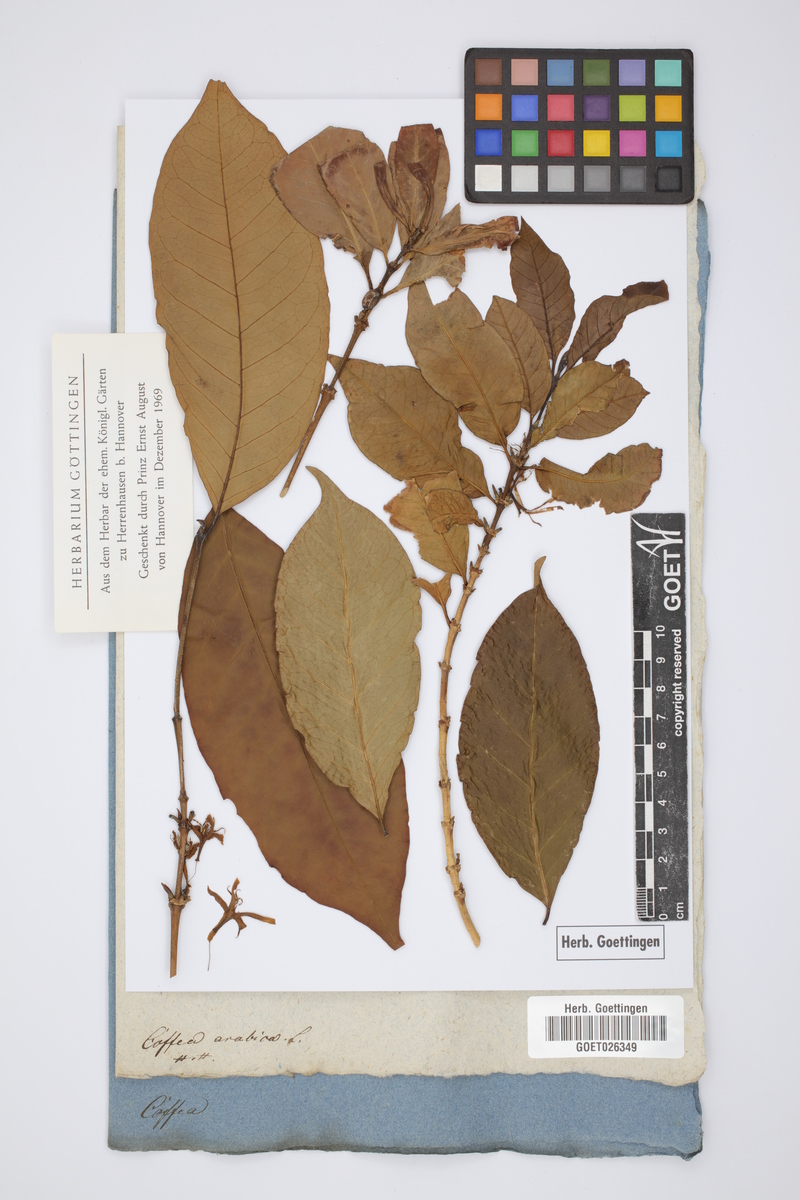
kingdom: Plantae
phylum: Tracheophyta
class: Magnoliopsida
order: Gentianales
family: Rubiaceae
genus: Coffea
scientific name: Coffea arabica
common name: Coffee
